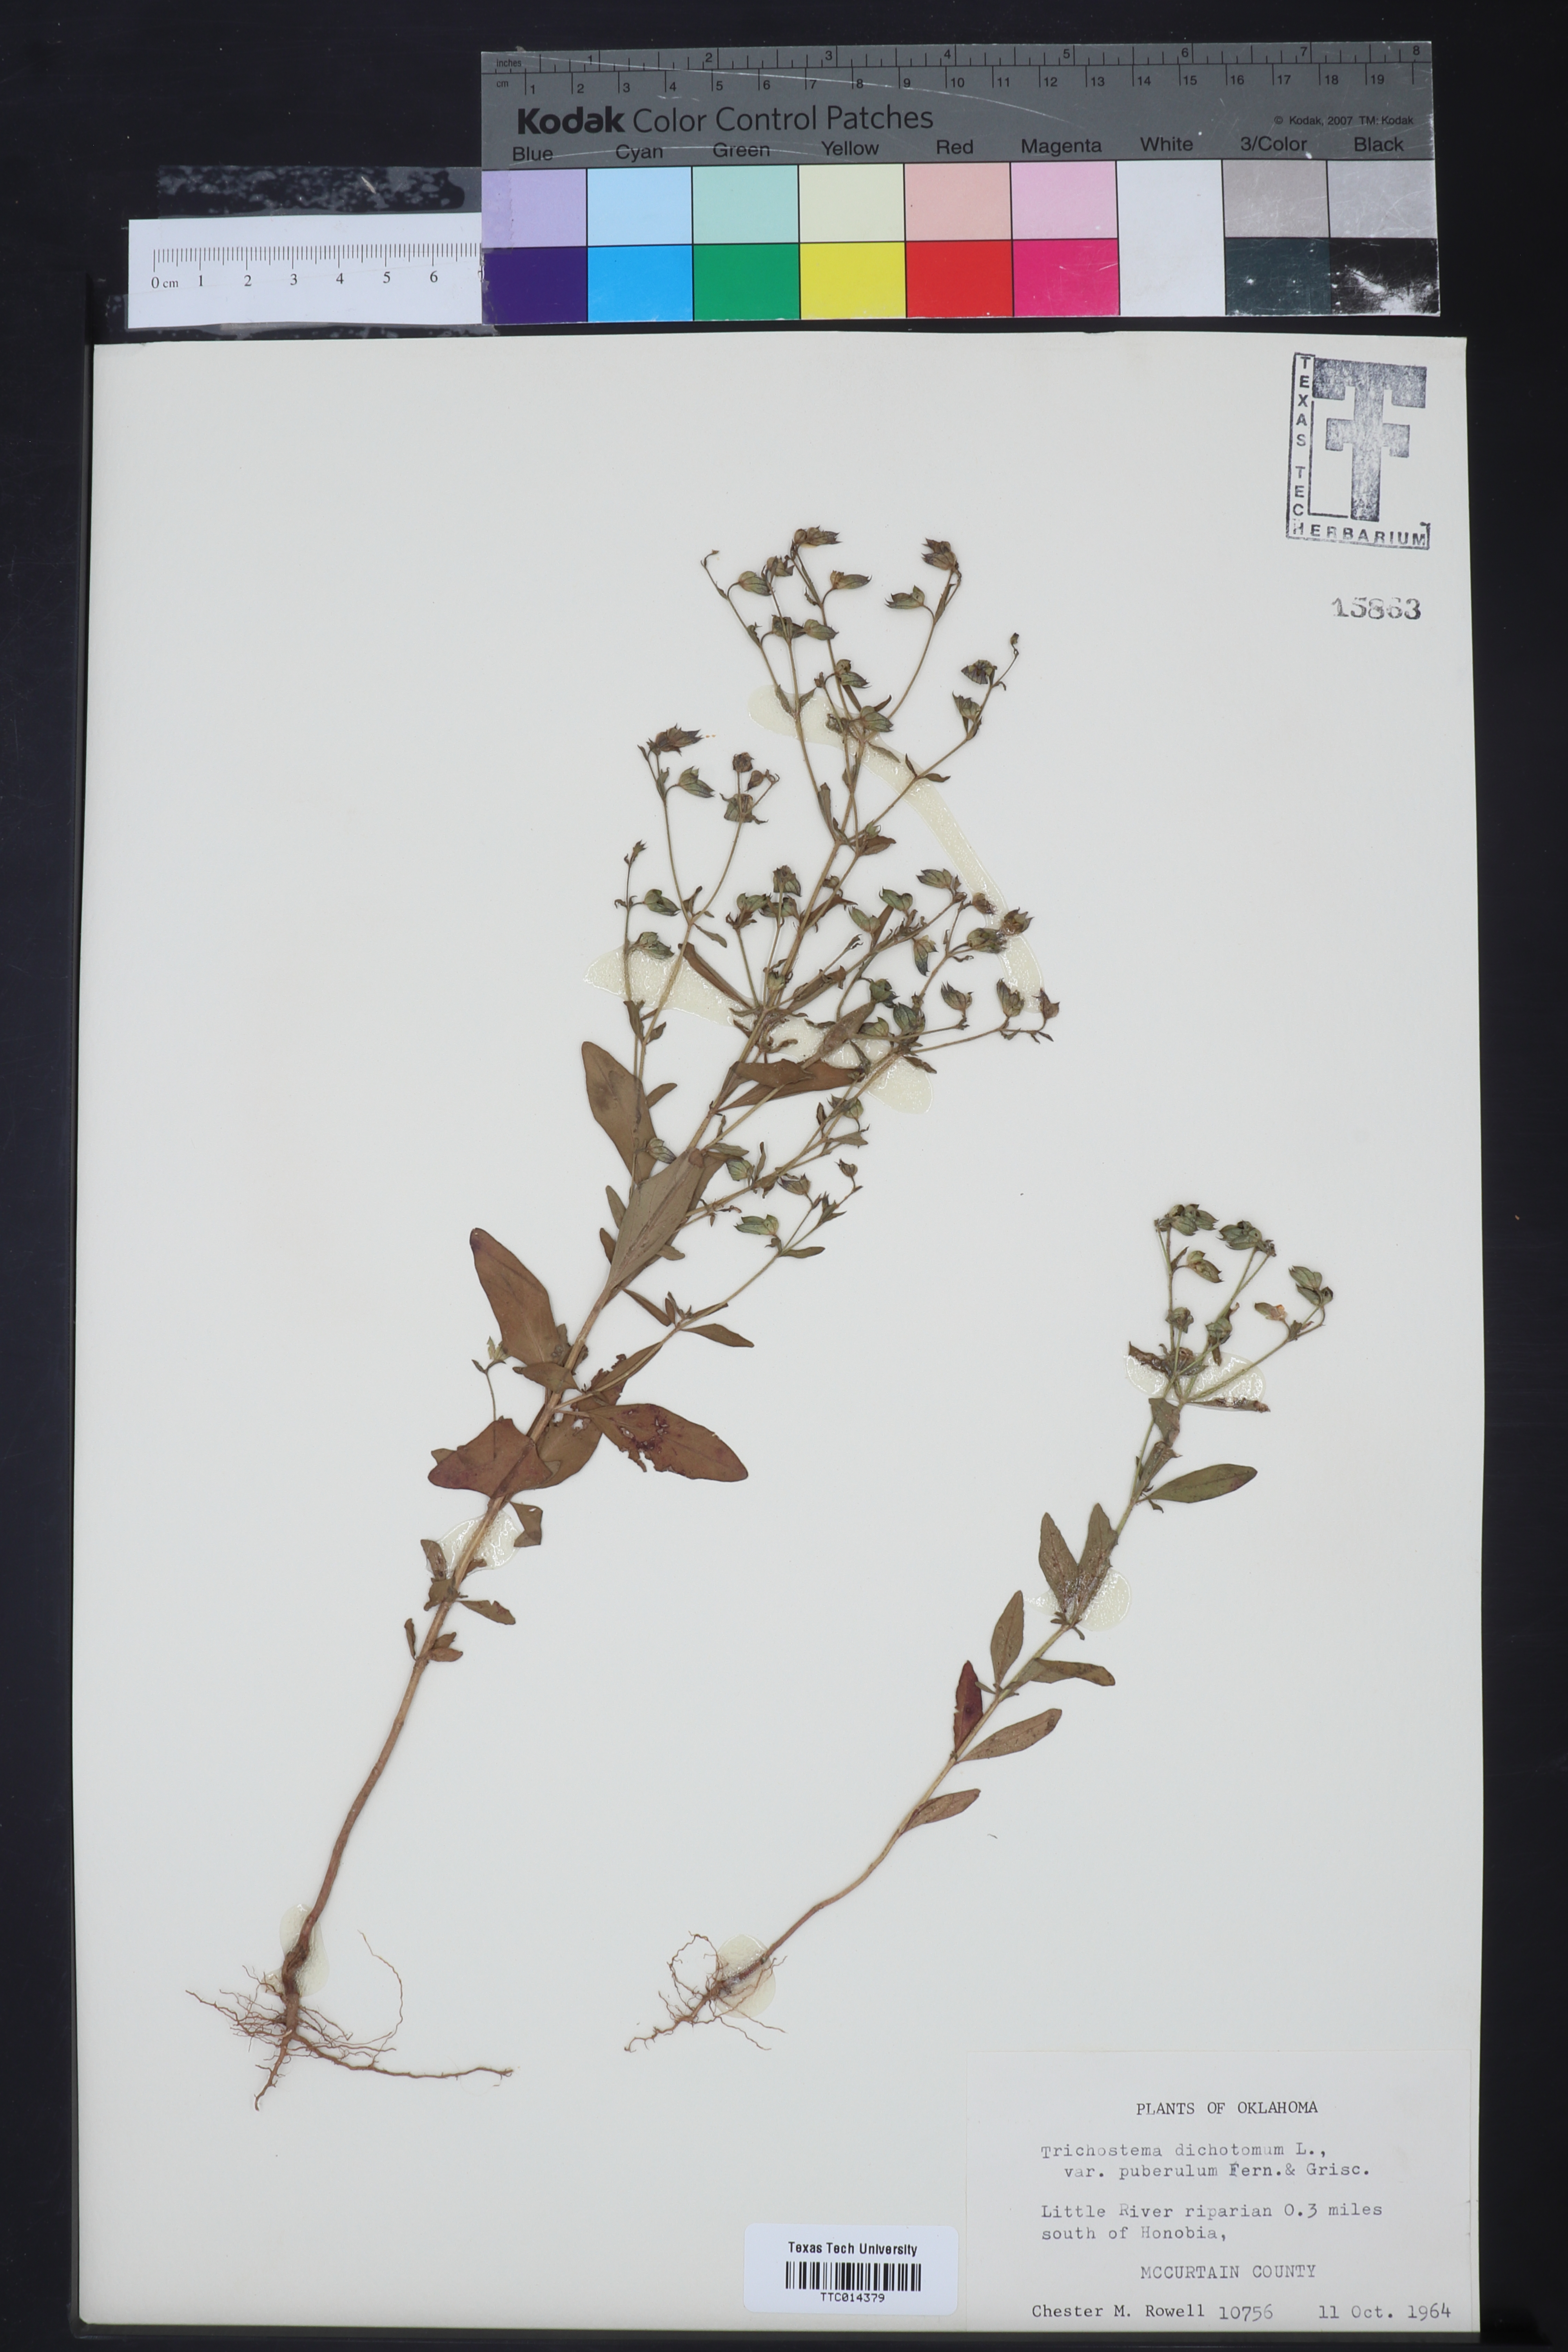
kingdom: Plantae
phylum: Tracheophyta
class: Magnoliopsida
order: Lamiales
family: Lamiaceae
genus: Trichostema
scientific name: Trichostema dichotomum
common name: Bastard pennyroyal
